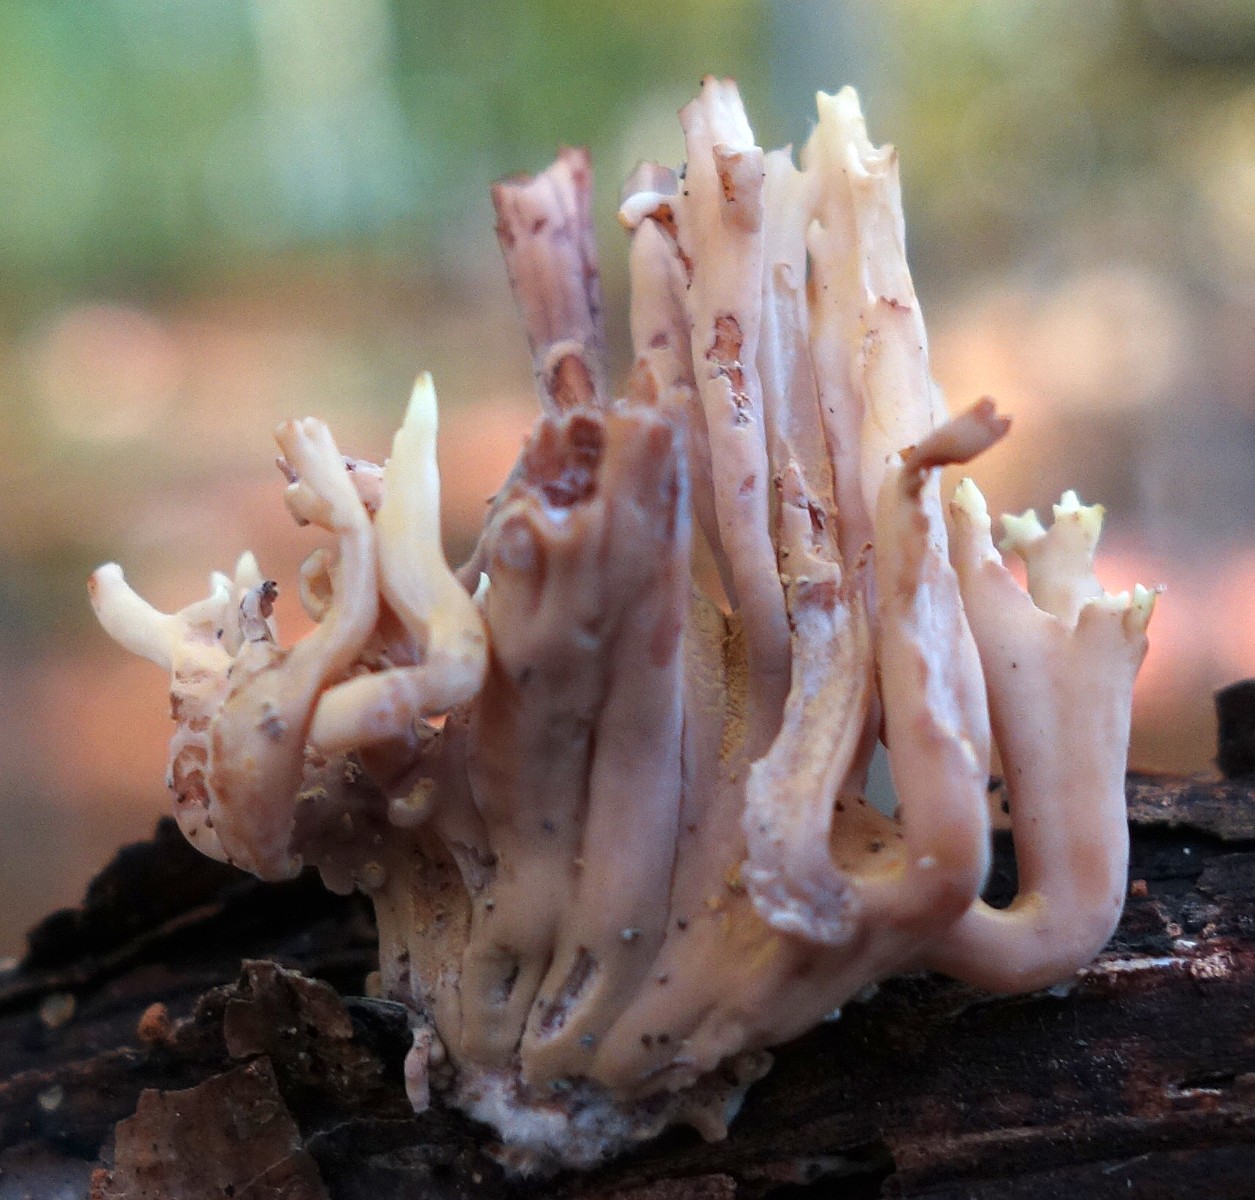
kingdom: Fungi
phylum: Basidiomycota
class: Agaricomycetes
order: Gomphales
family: Gomphaceae
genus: Ramaria
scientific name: Ramaria stricta
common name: rank koralsvamp
